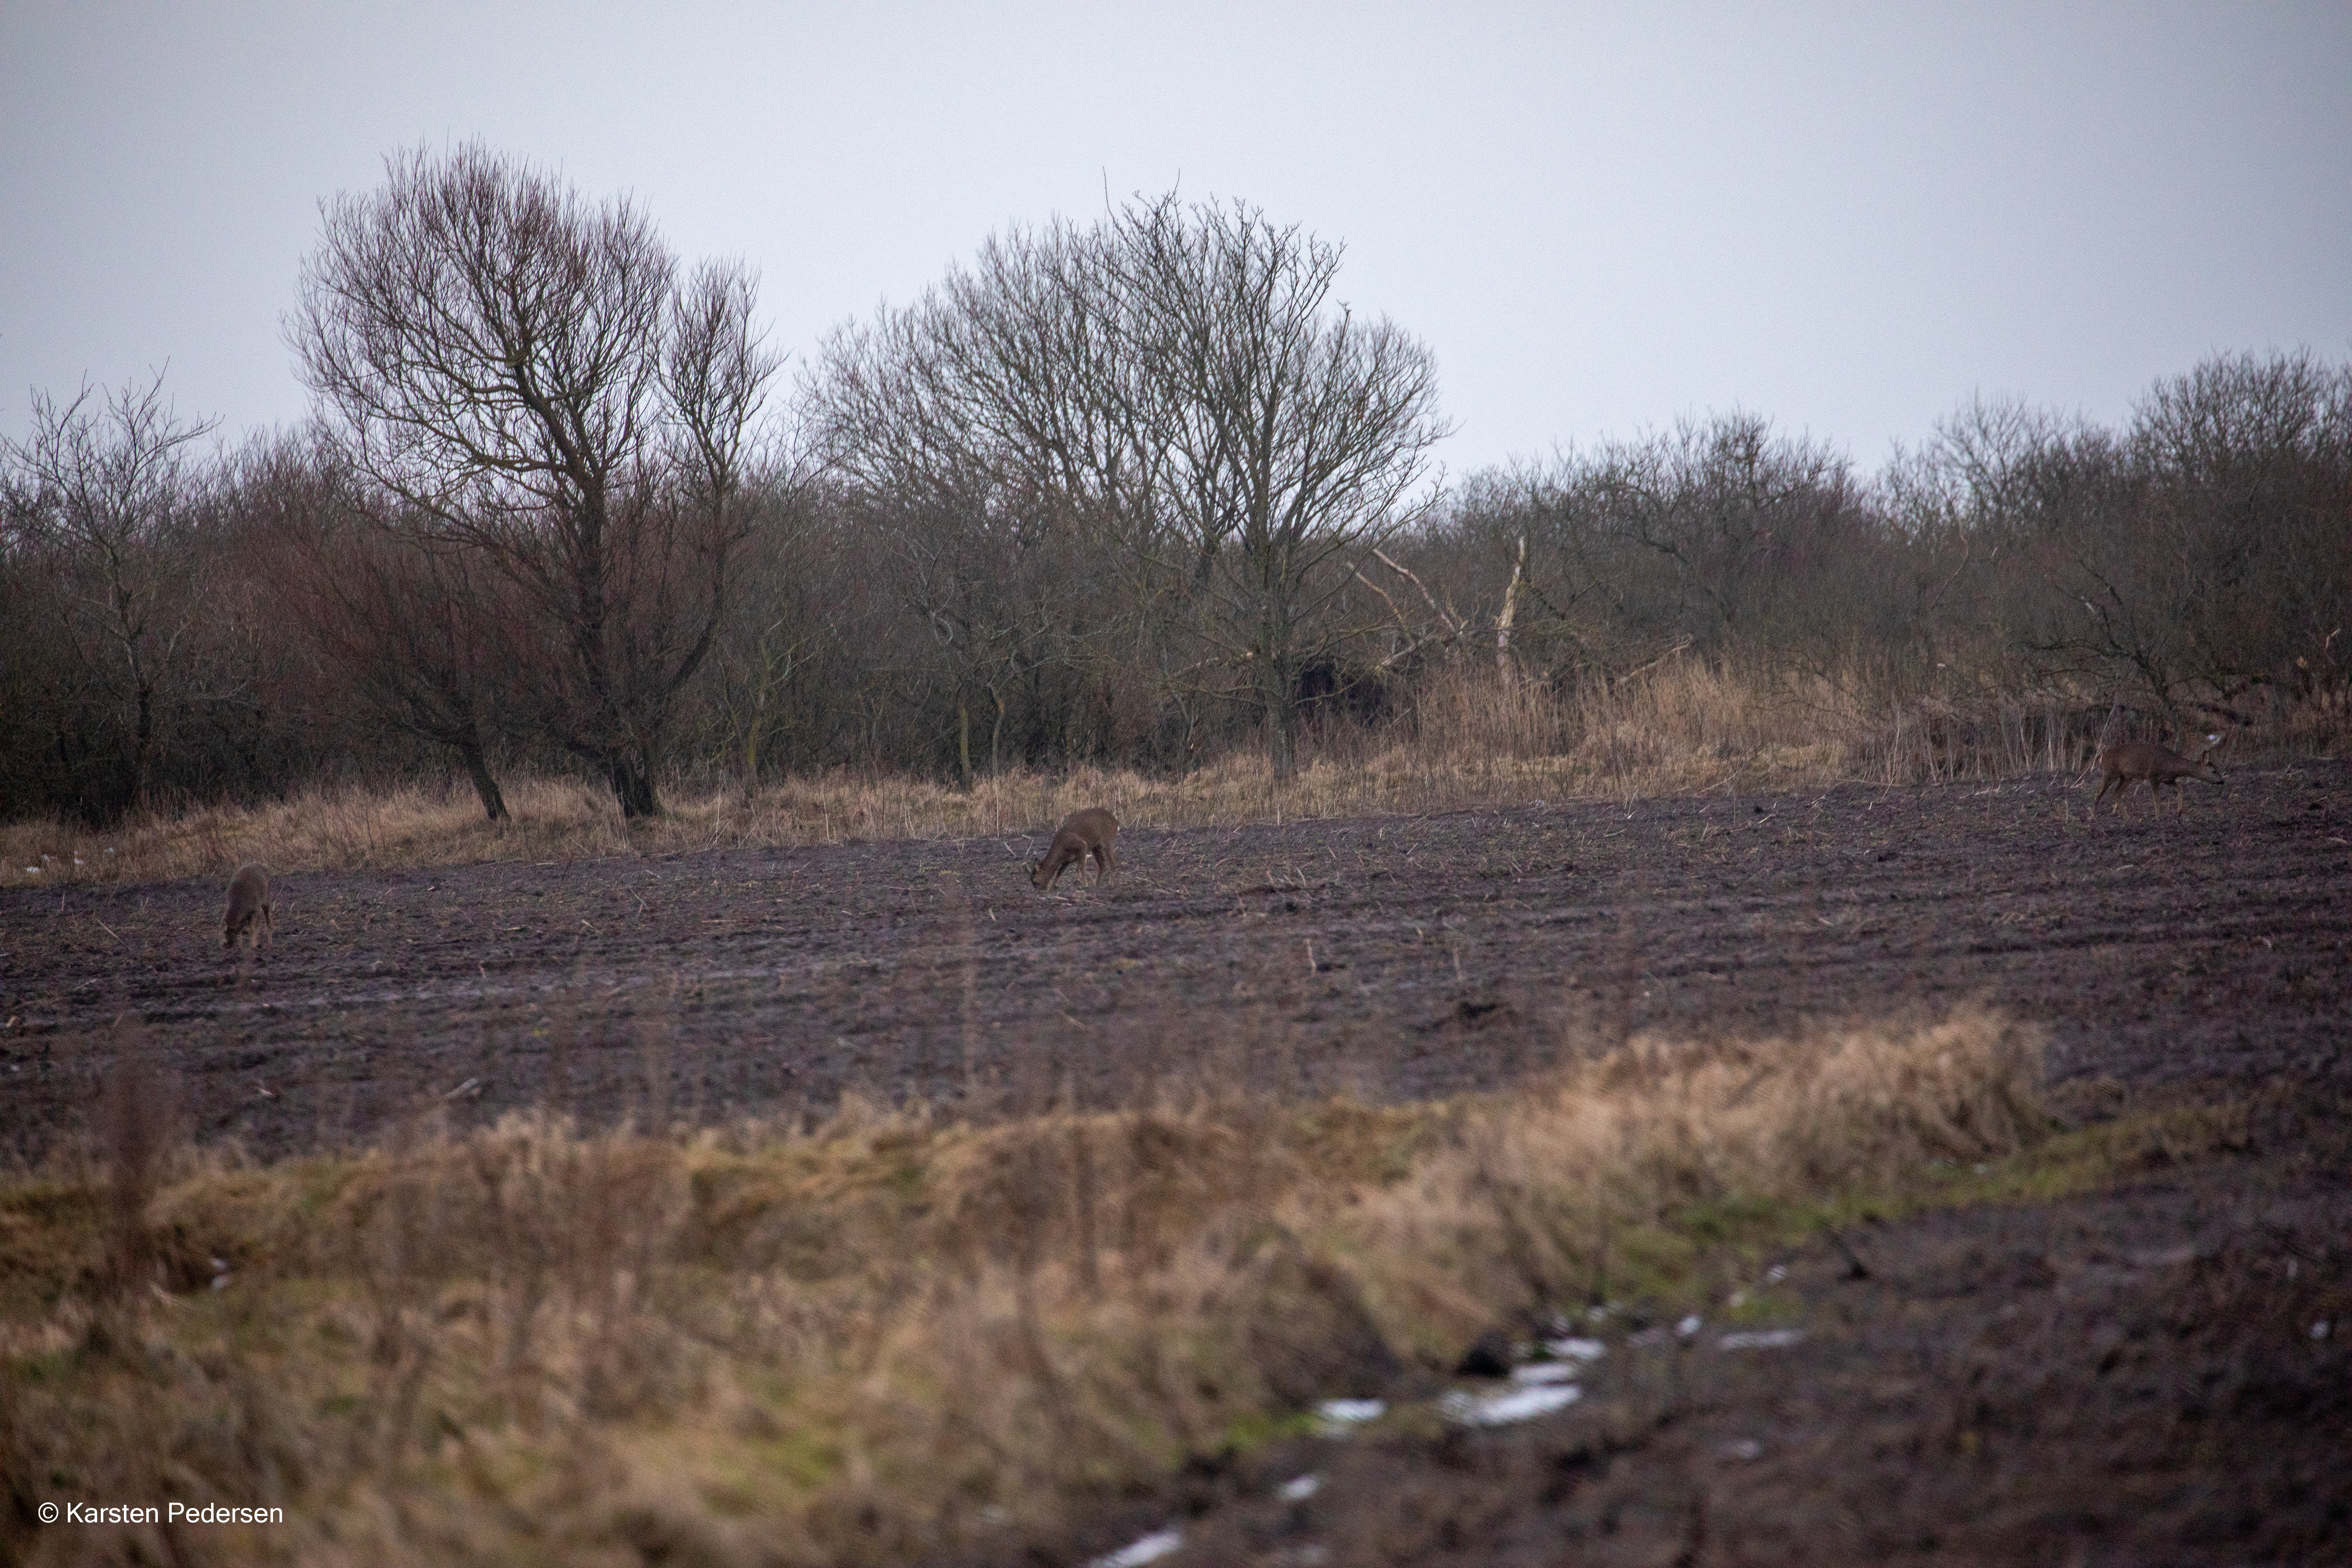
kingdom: Animalia
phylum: Chordata
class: Mammalia
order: Artiodactyla
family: Cervidae
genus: Capreolus
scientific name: Capreolus capreolus
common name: Rådyr
